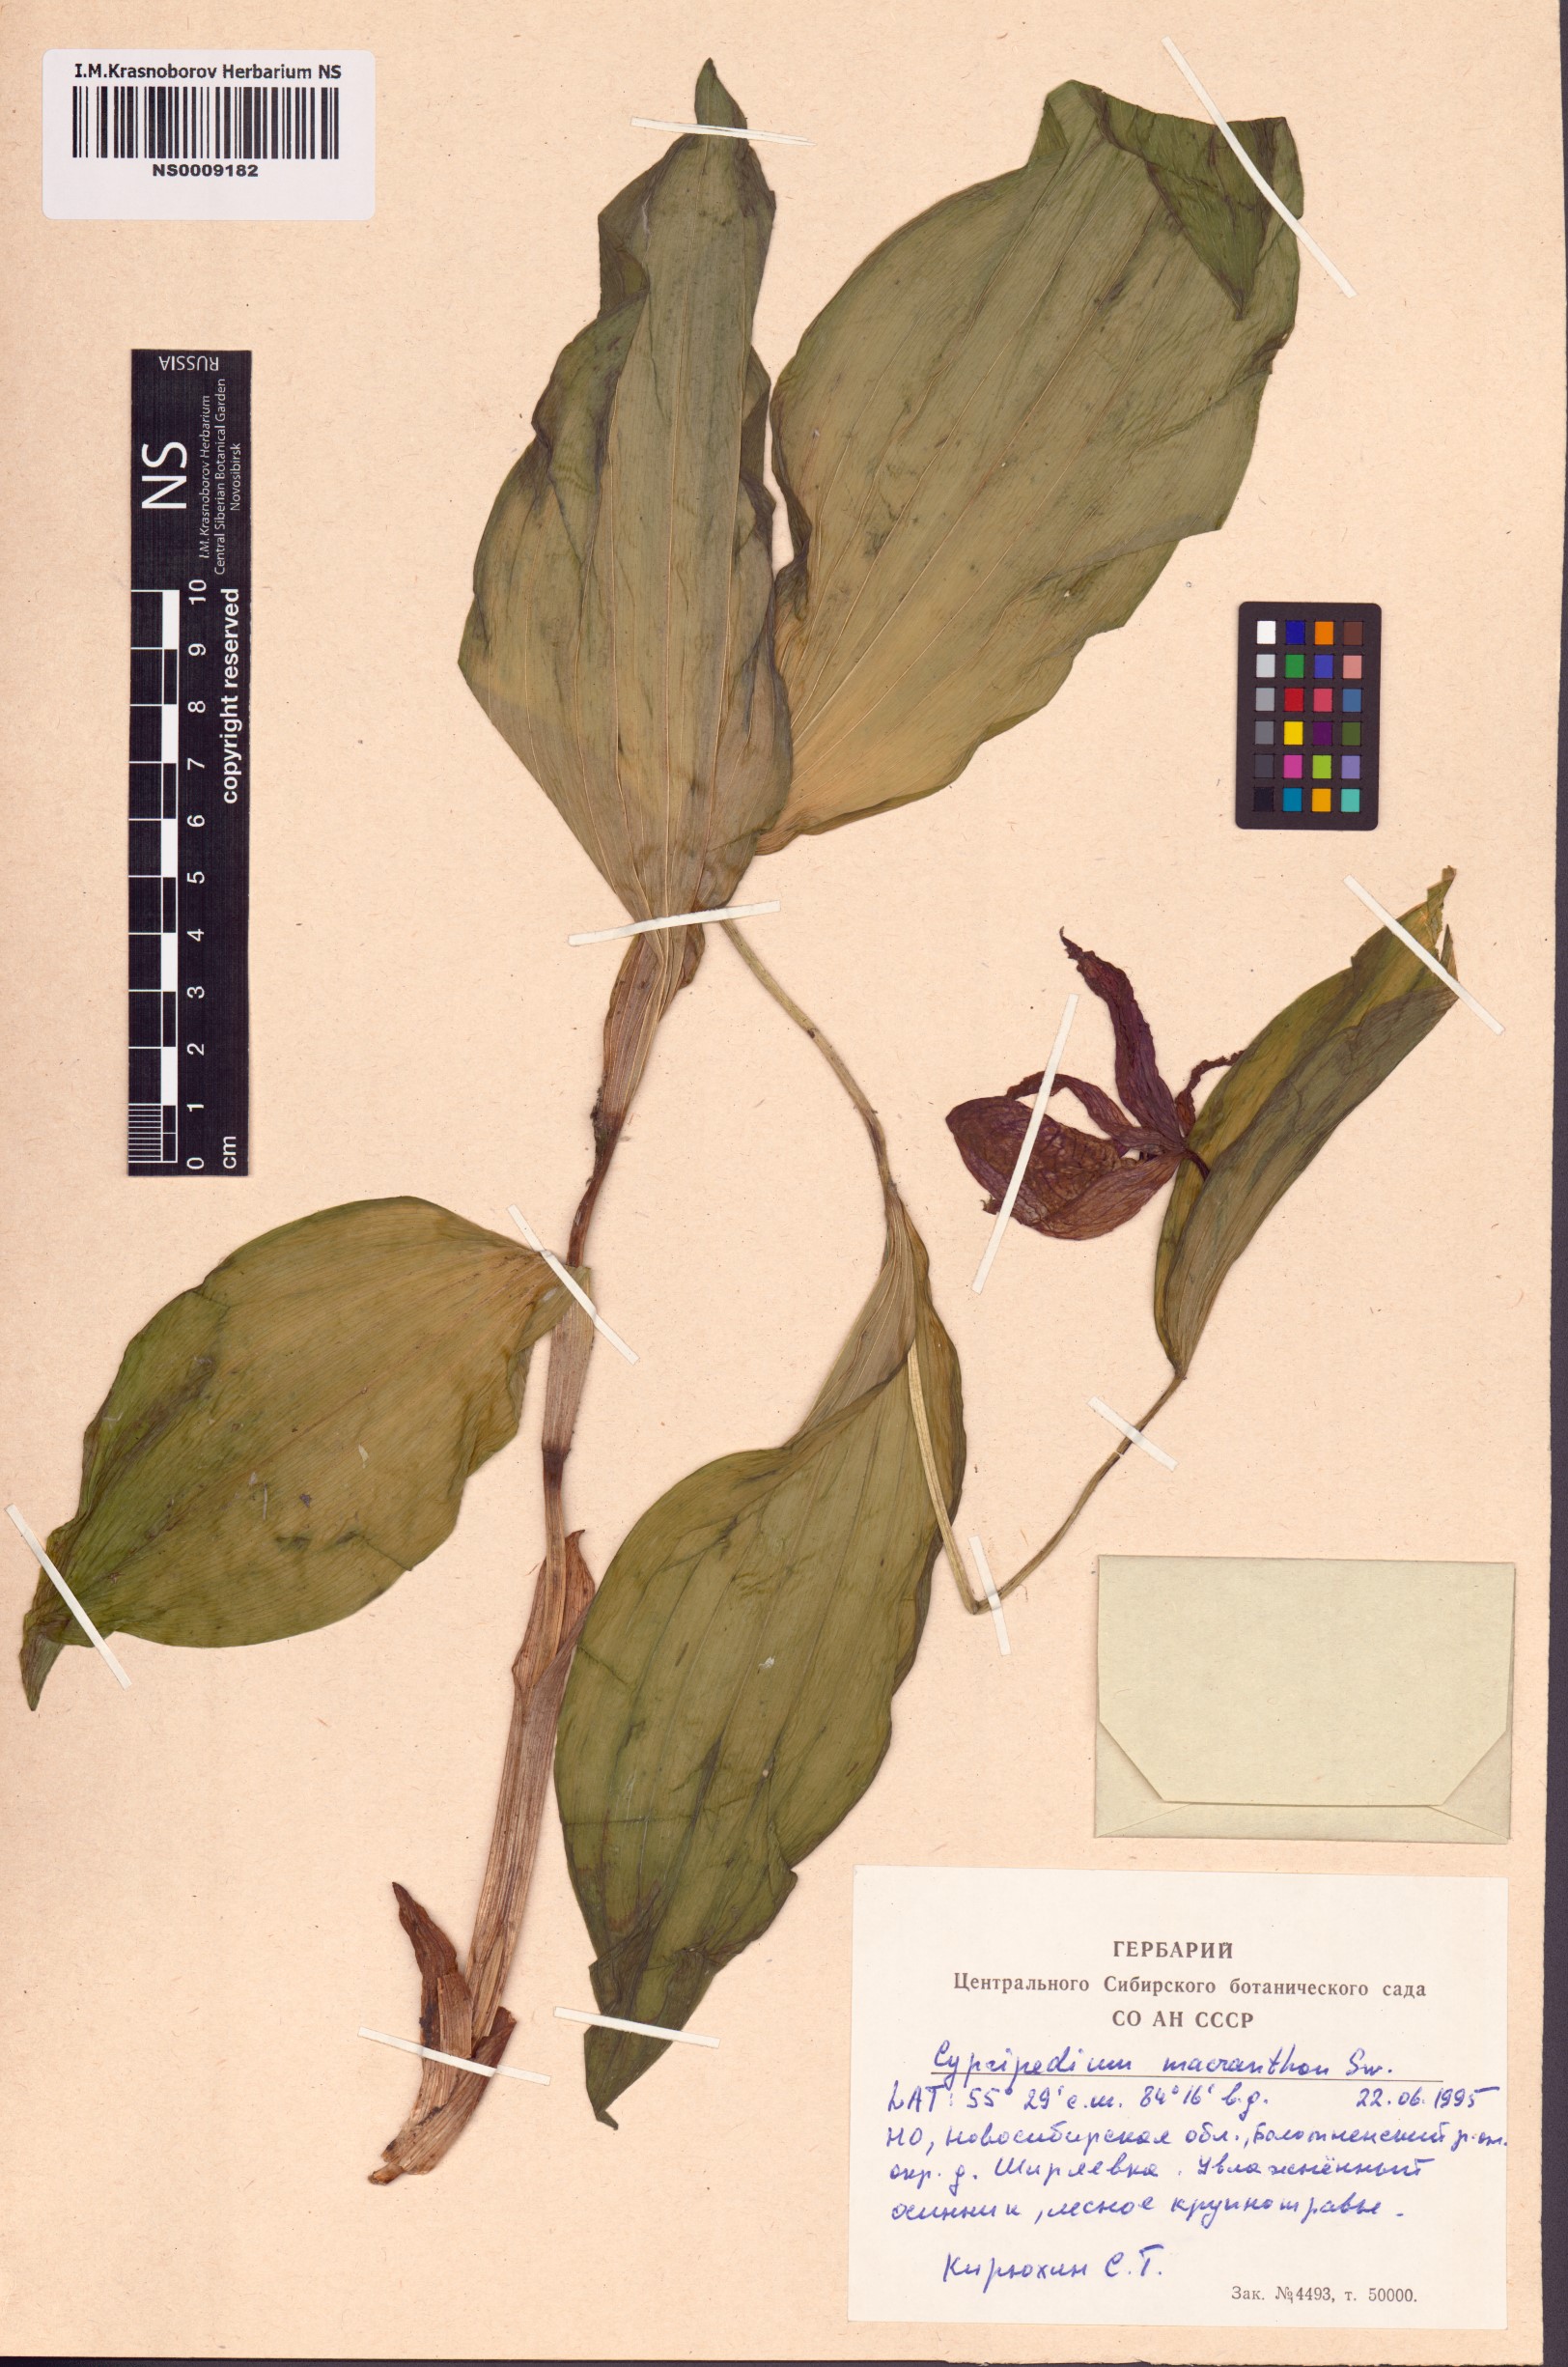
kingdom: Plantae
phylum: Tracheophyta
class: Liliopsida
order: Asparagales
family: Orchidaceae
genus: Cypripedium
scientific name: Cypripedium macranthos
